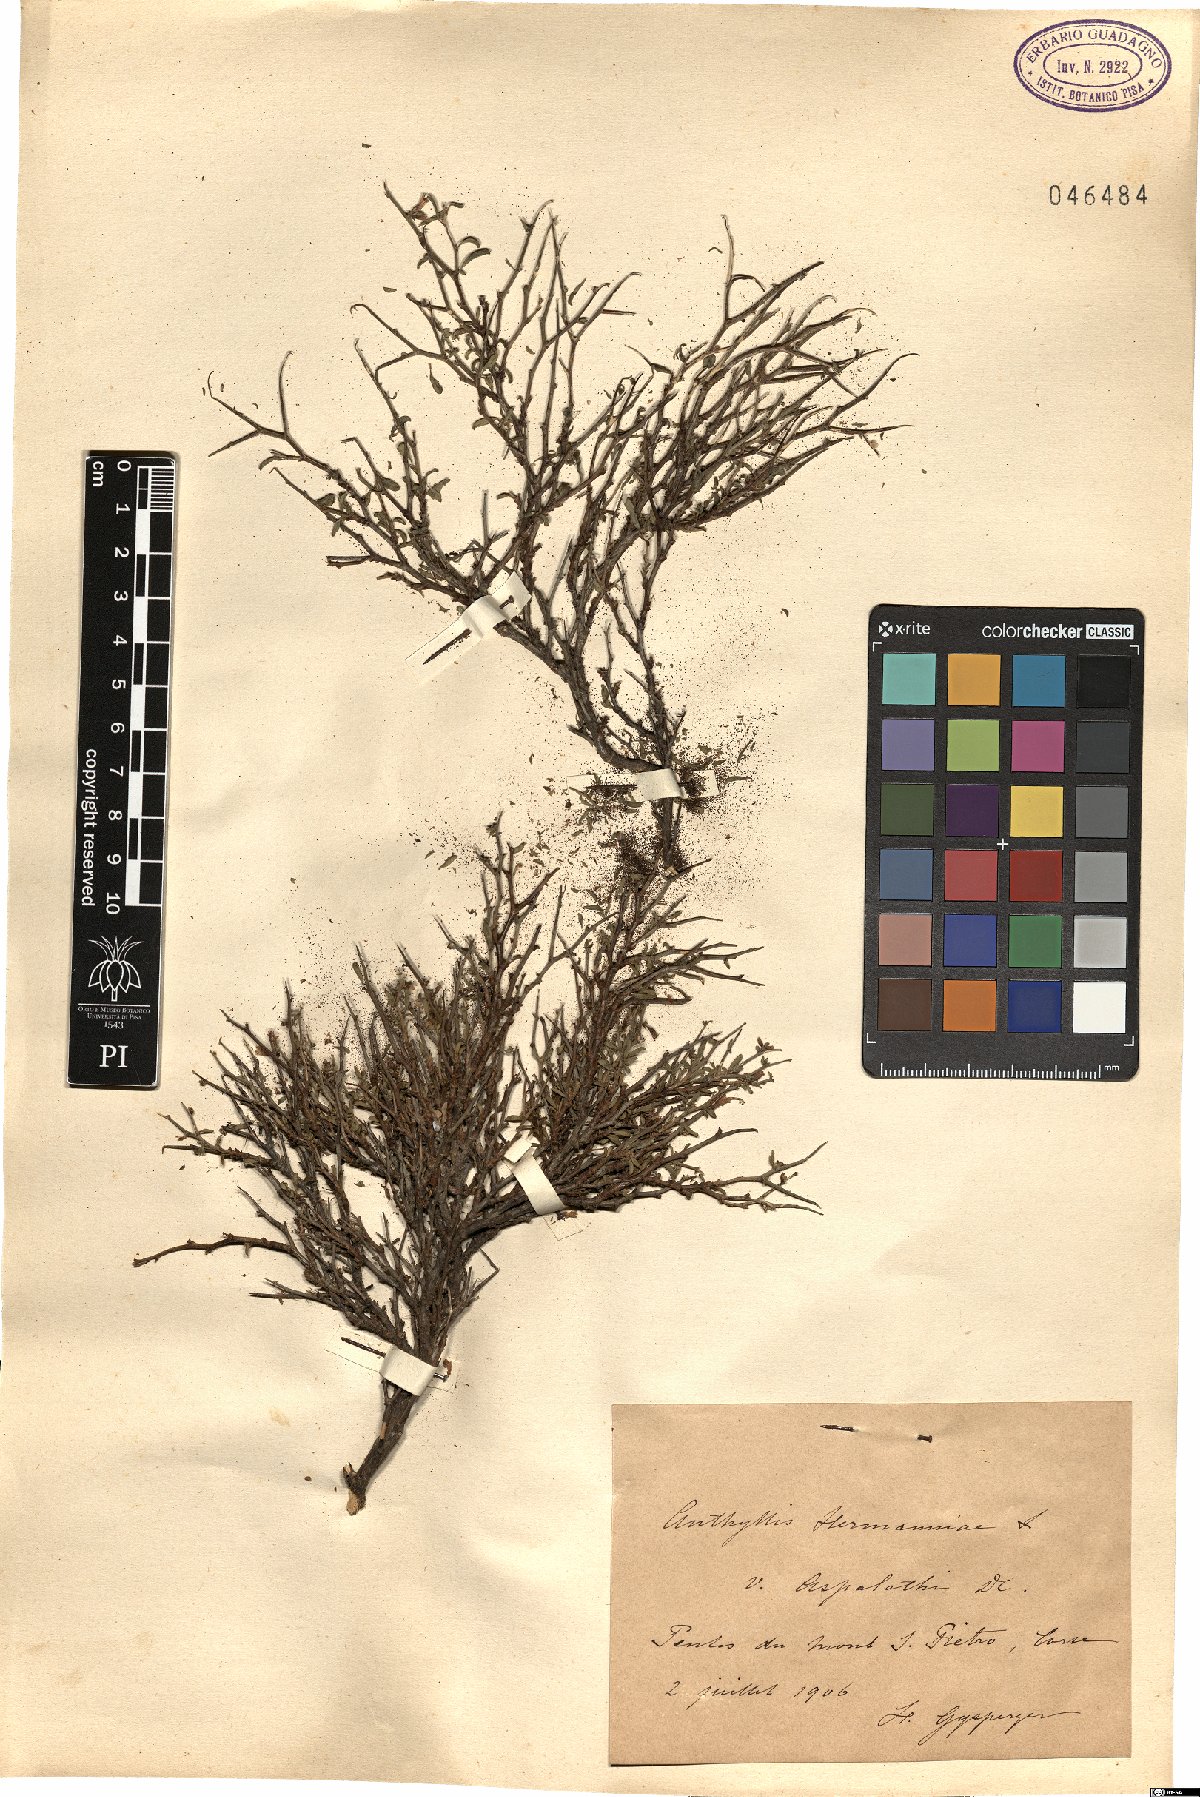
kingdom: Plantae
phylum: Tracheophyta
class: Magnoliopsida
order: Fabales
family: Fabaceae
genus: Anthyllis
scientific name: Anthyllis hermanniae
